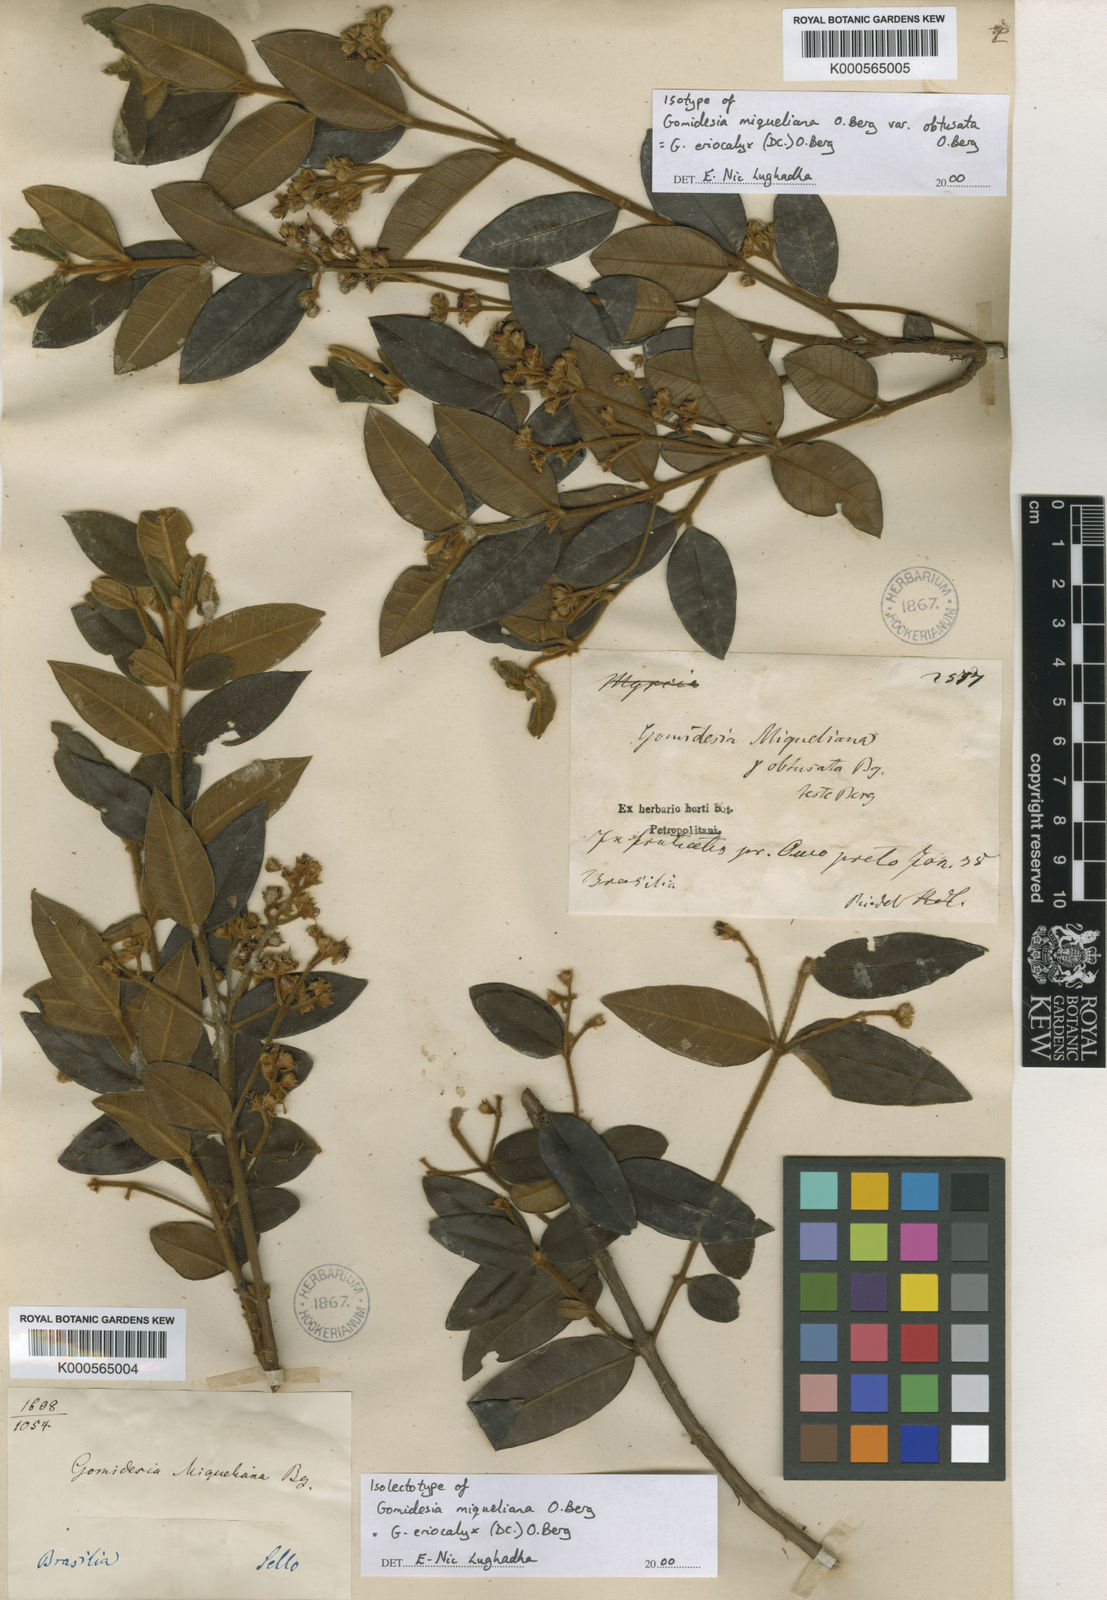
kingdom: Plantae
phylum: Tracheophyta
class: Magnoliopsida
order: Myrtales
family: Myrtaceae
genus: Myrcia
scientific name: Myrcia eriocalyx
